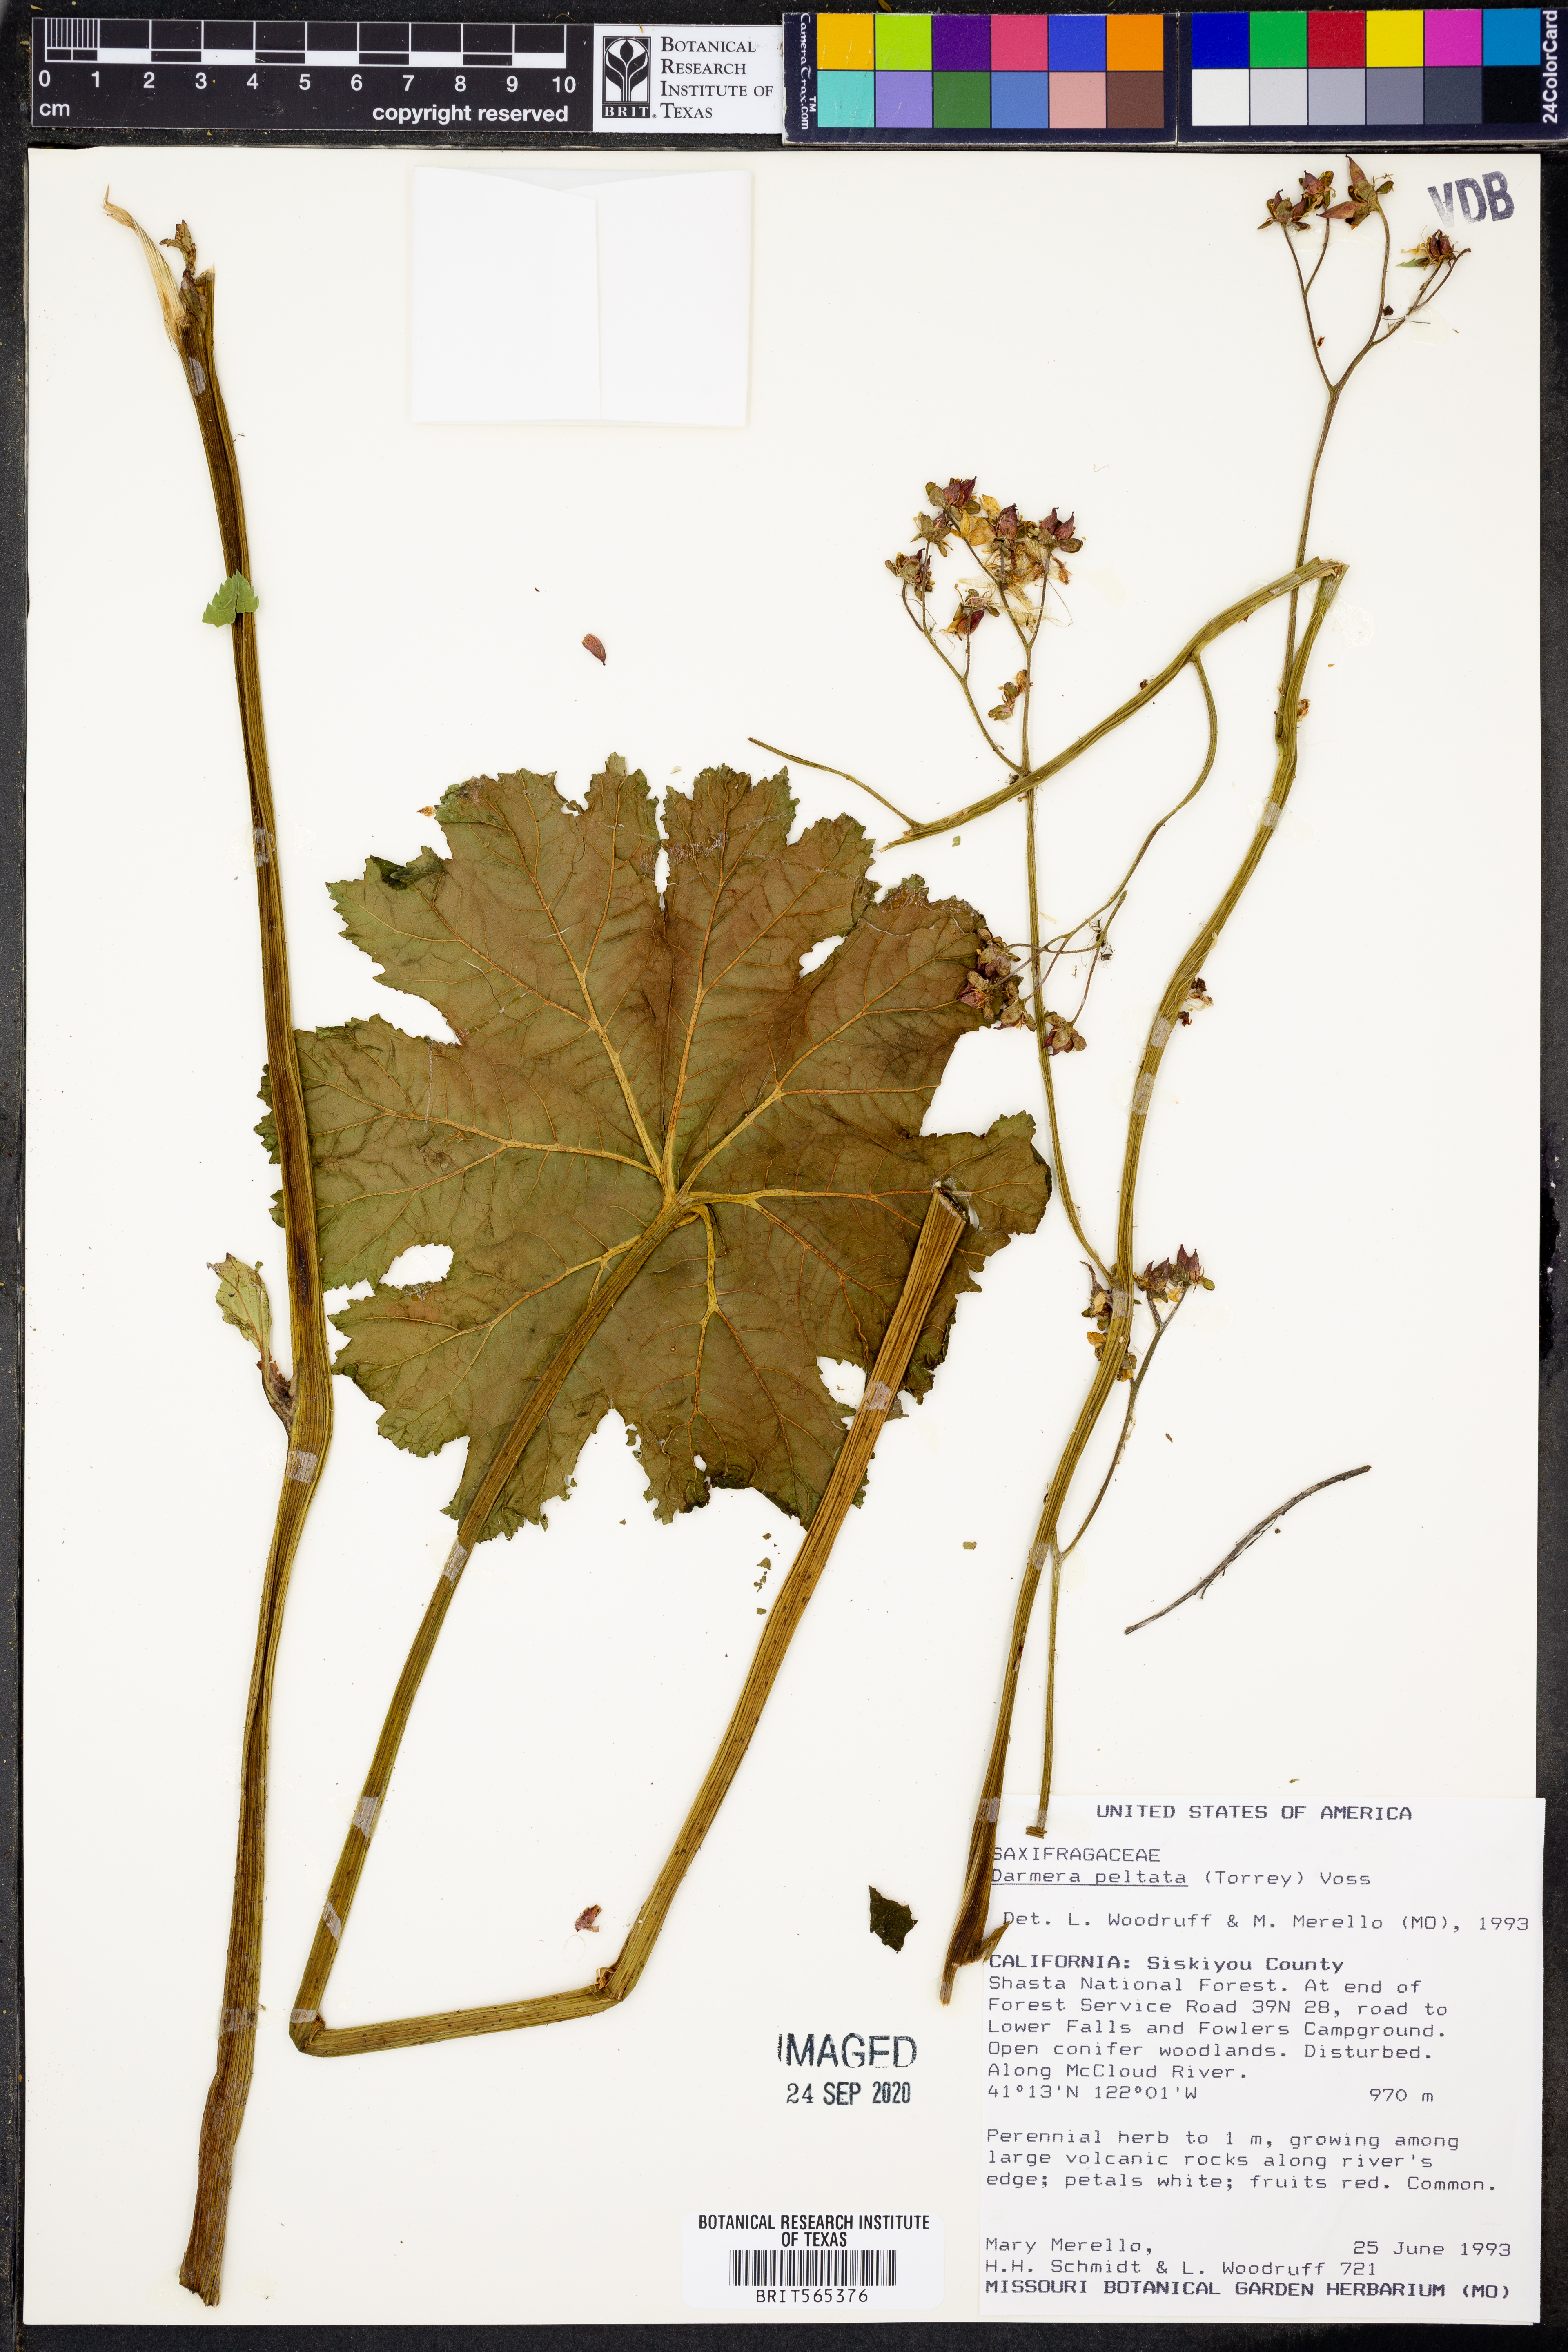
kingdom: Plantae
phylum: Tracheophyta
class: Magnoliopsida
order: Saxifragales
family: Saxifragaceae
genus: Darmera
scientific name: Darmera peltata
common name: Indian-rhubarb
